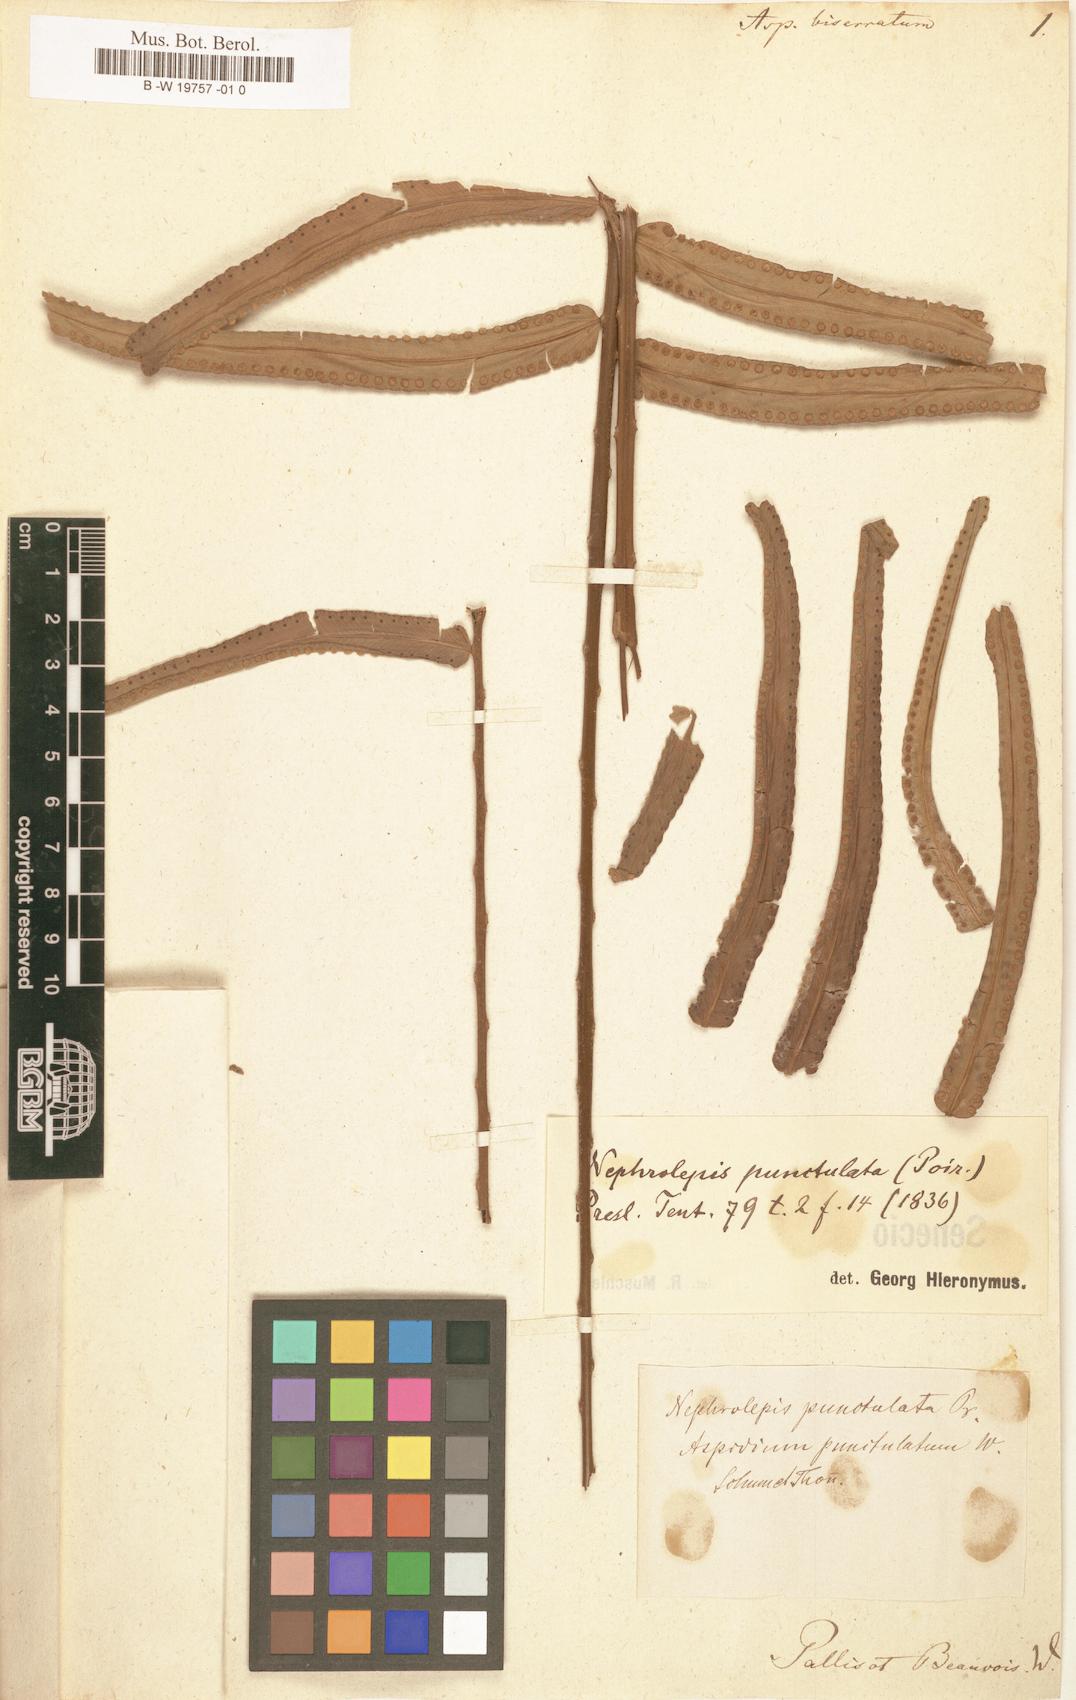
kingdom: Plantae
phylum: Tracheophyta
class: Polypodiopsida
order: Polypodiales
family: Nephrolepidaceae
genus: Nephrolepis
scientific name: Nephrolepis biserrata
